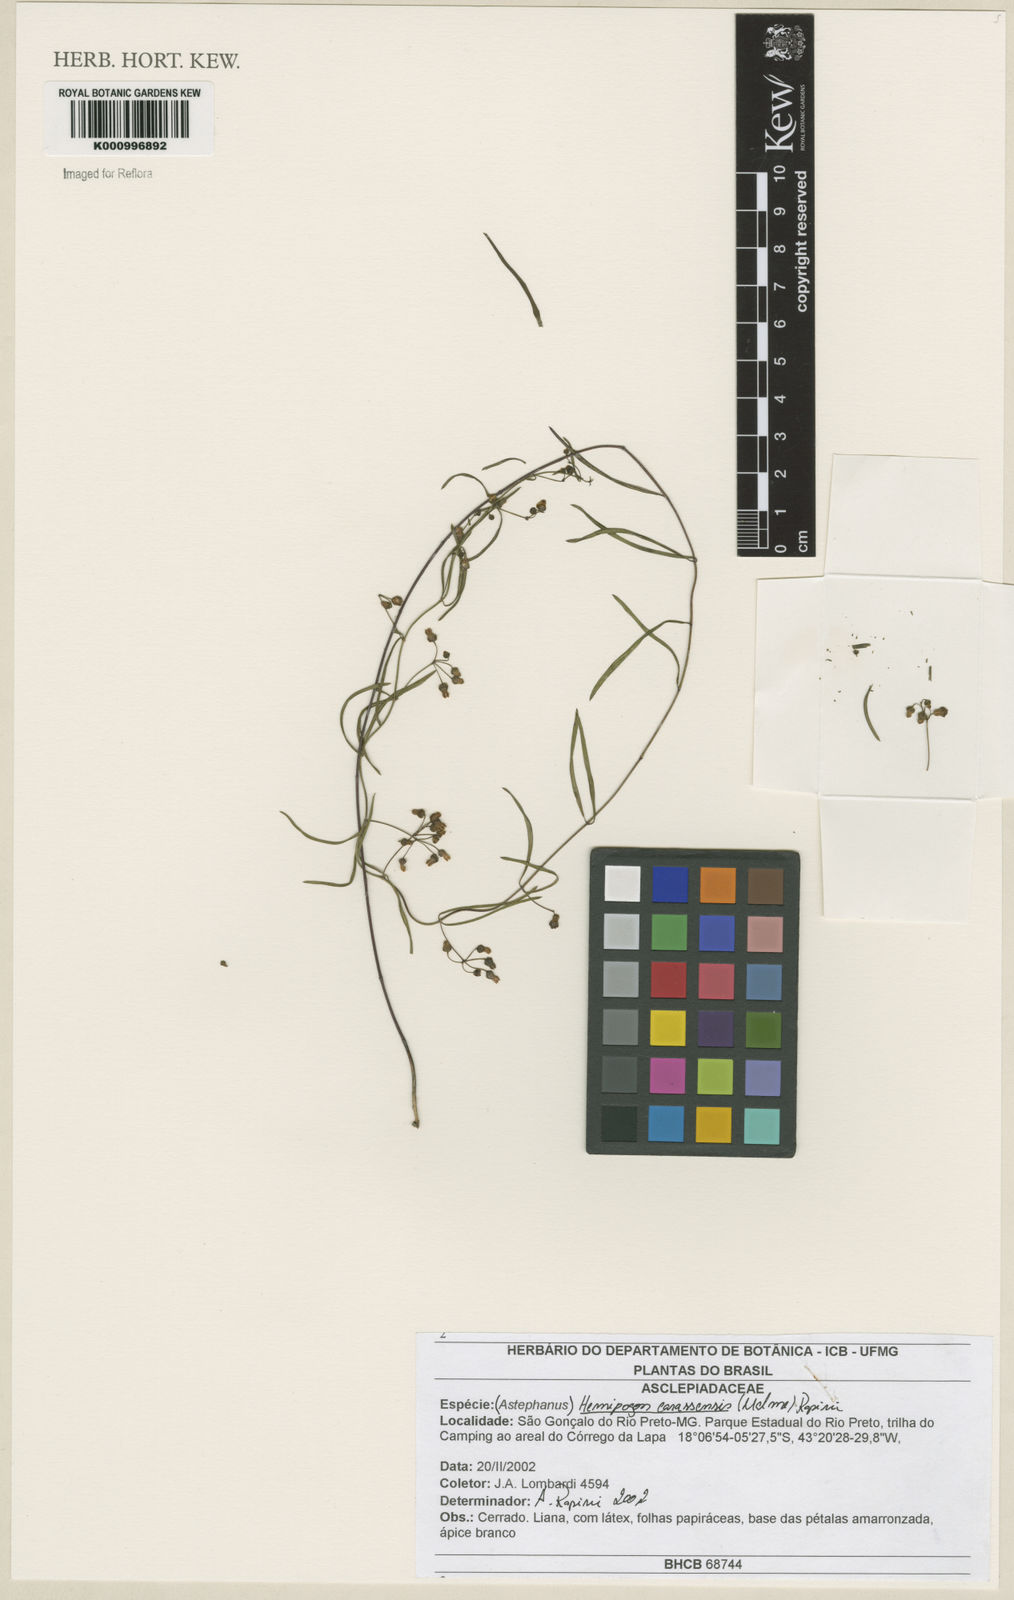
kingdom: Plantae
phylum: Tracheophyta
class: Magnoliopsida
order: Gentianales
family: Apocynaceae
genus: Morilloa
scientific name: Morilloa carassensis
